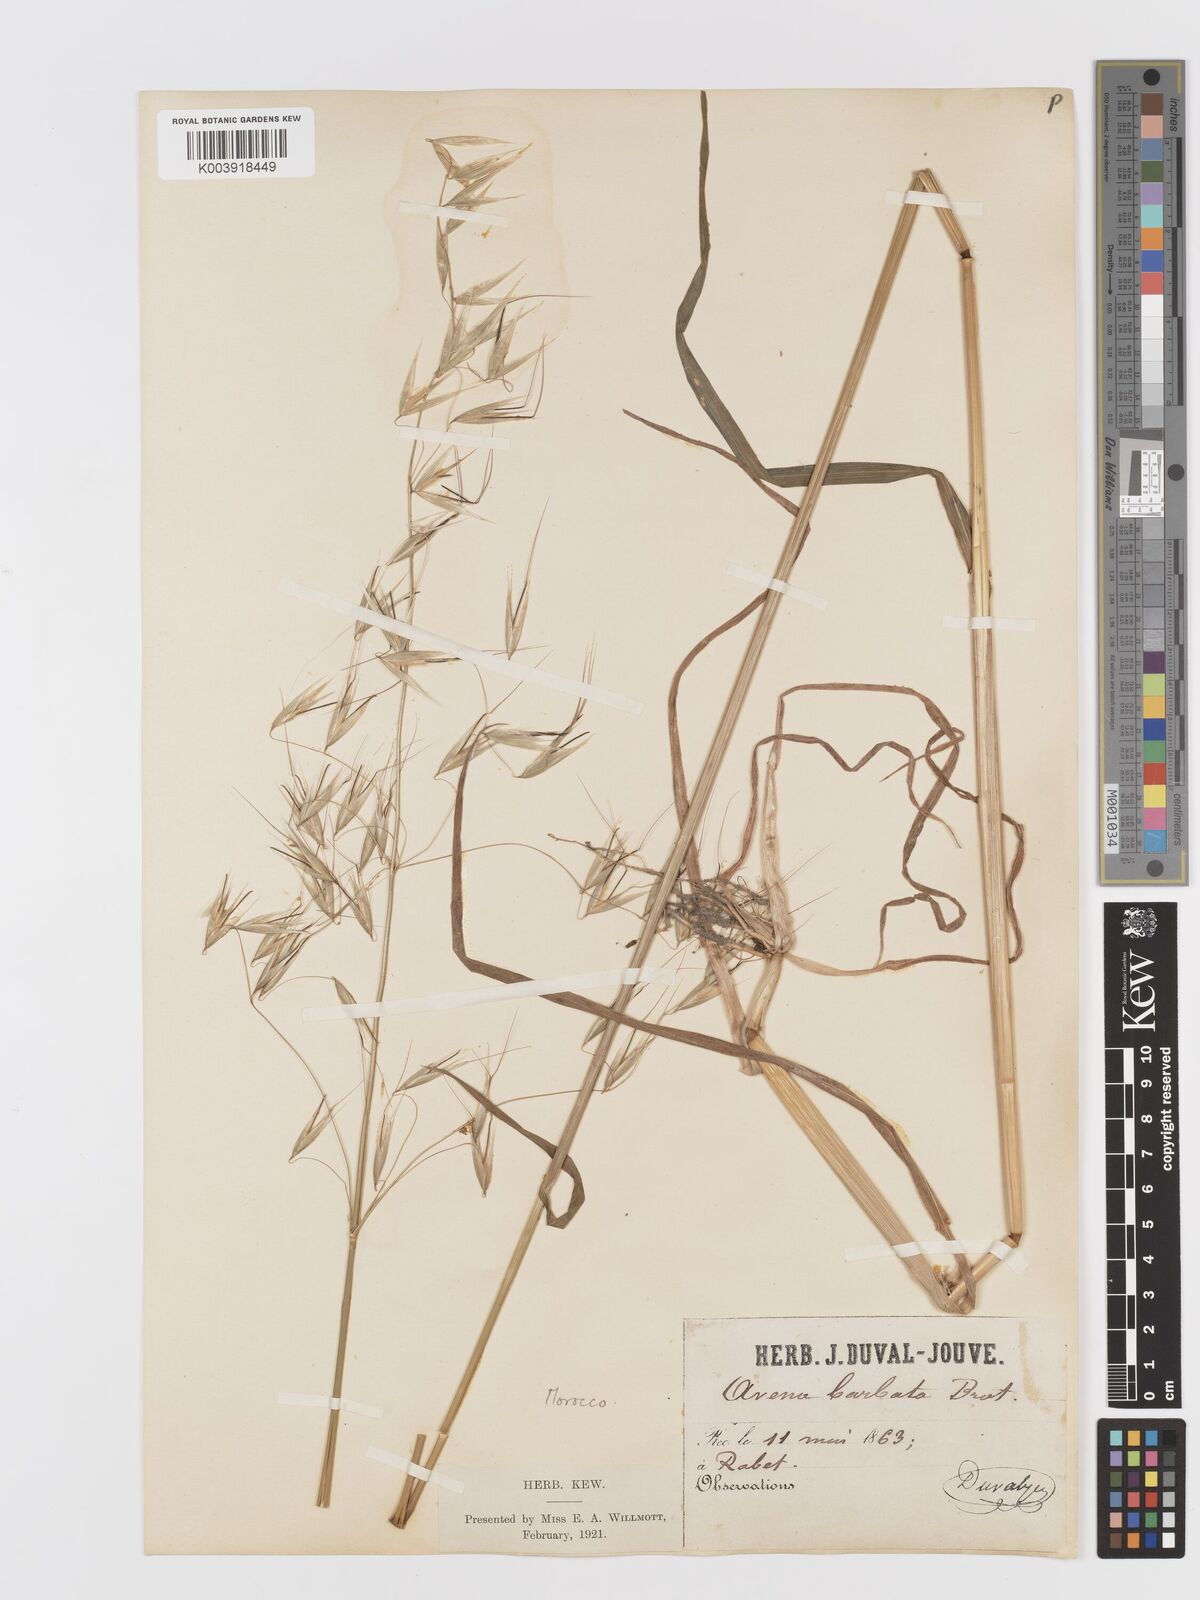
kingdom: Plantae
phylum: Tracheophyta
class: Liliopsida
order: Poales
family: Poaceae
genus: Avena
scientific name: Avena
